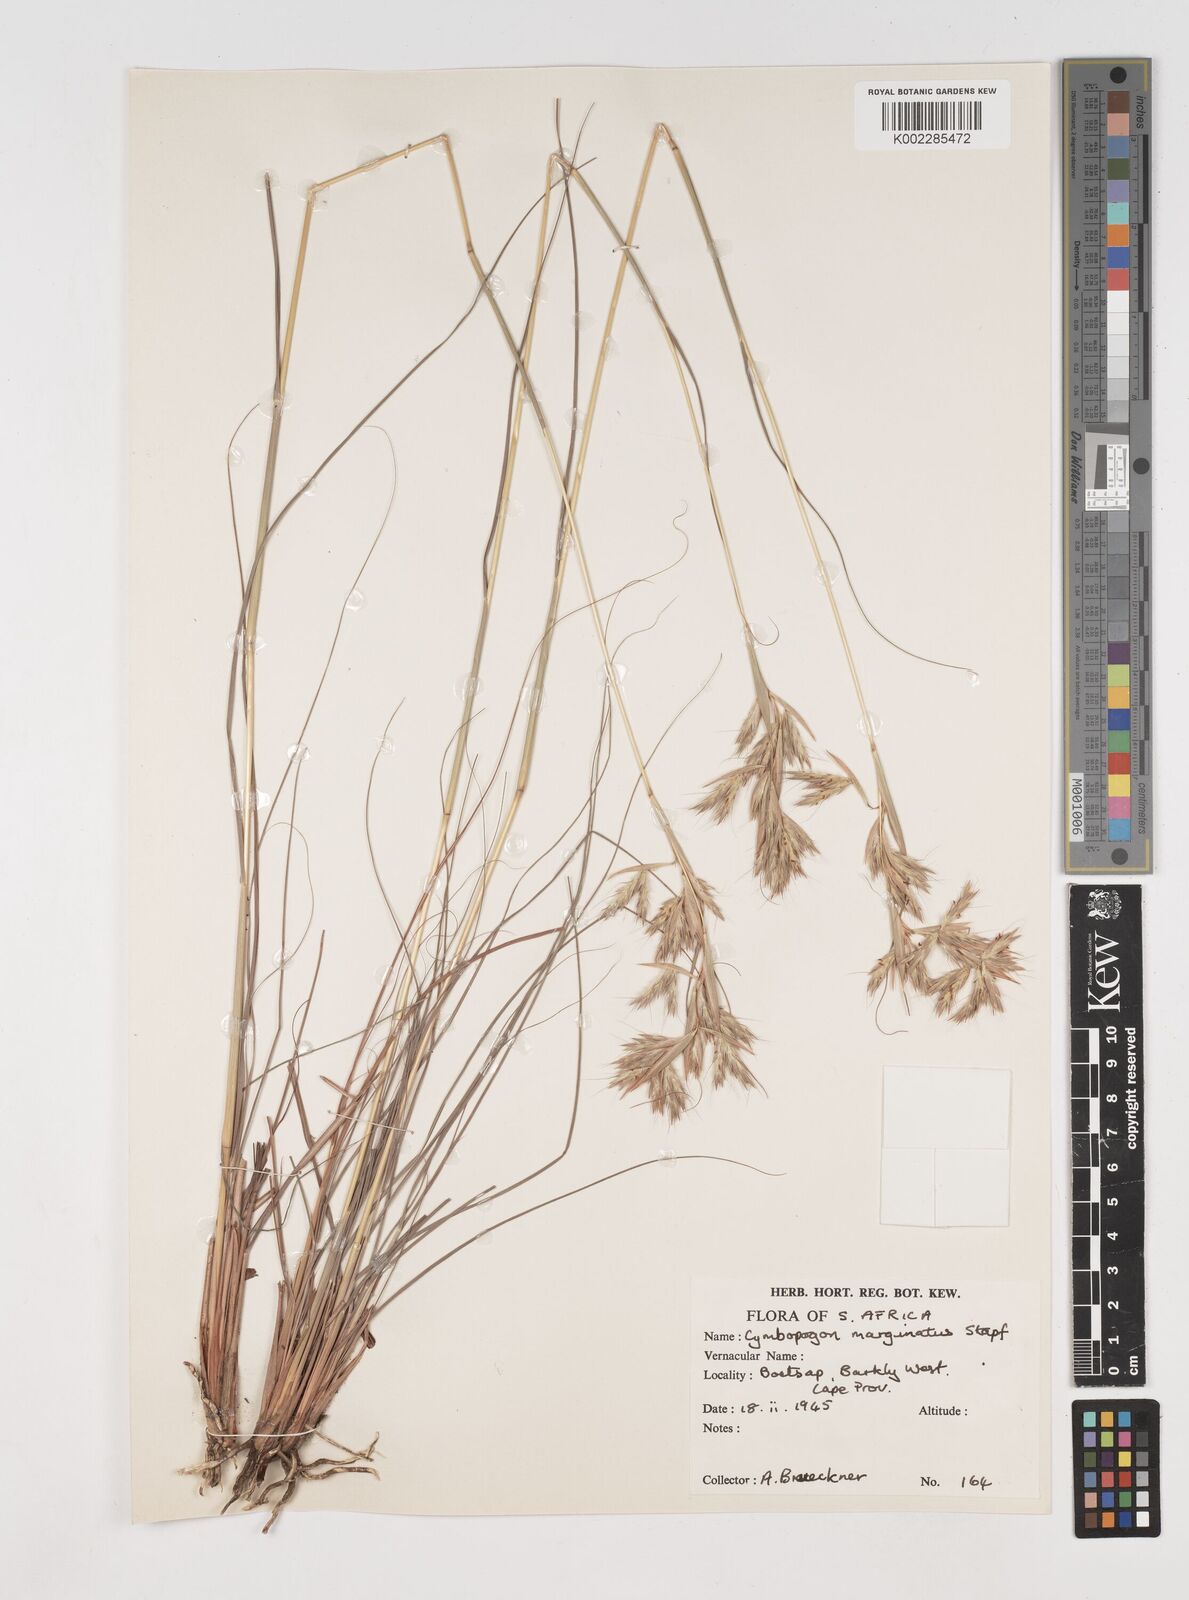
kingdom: Plantae
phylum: Tracheophyta
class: Liliopsida
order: Poales
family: Poaceae
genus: Cymbopogon
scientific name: Cymbopogon pospischilii
